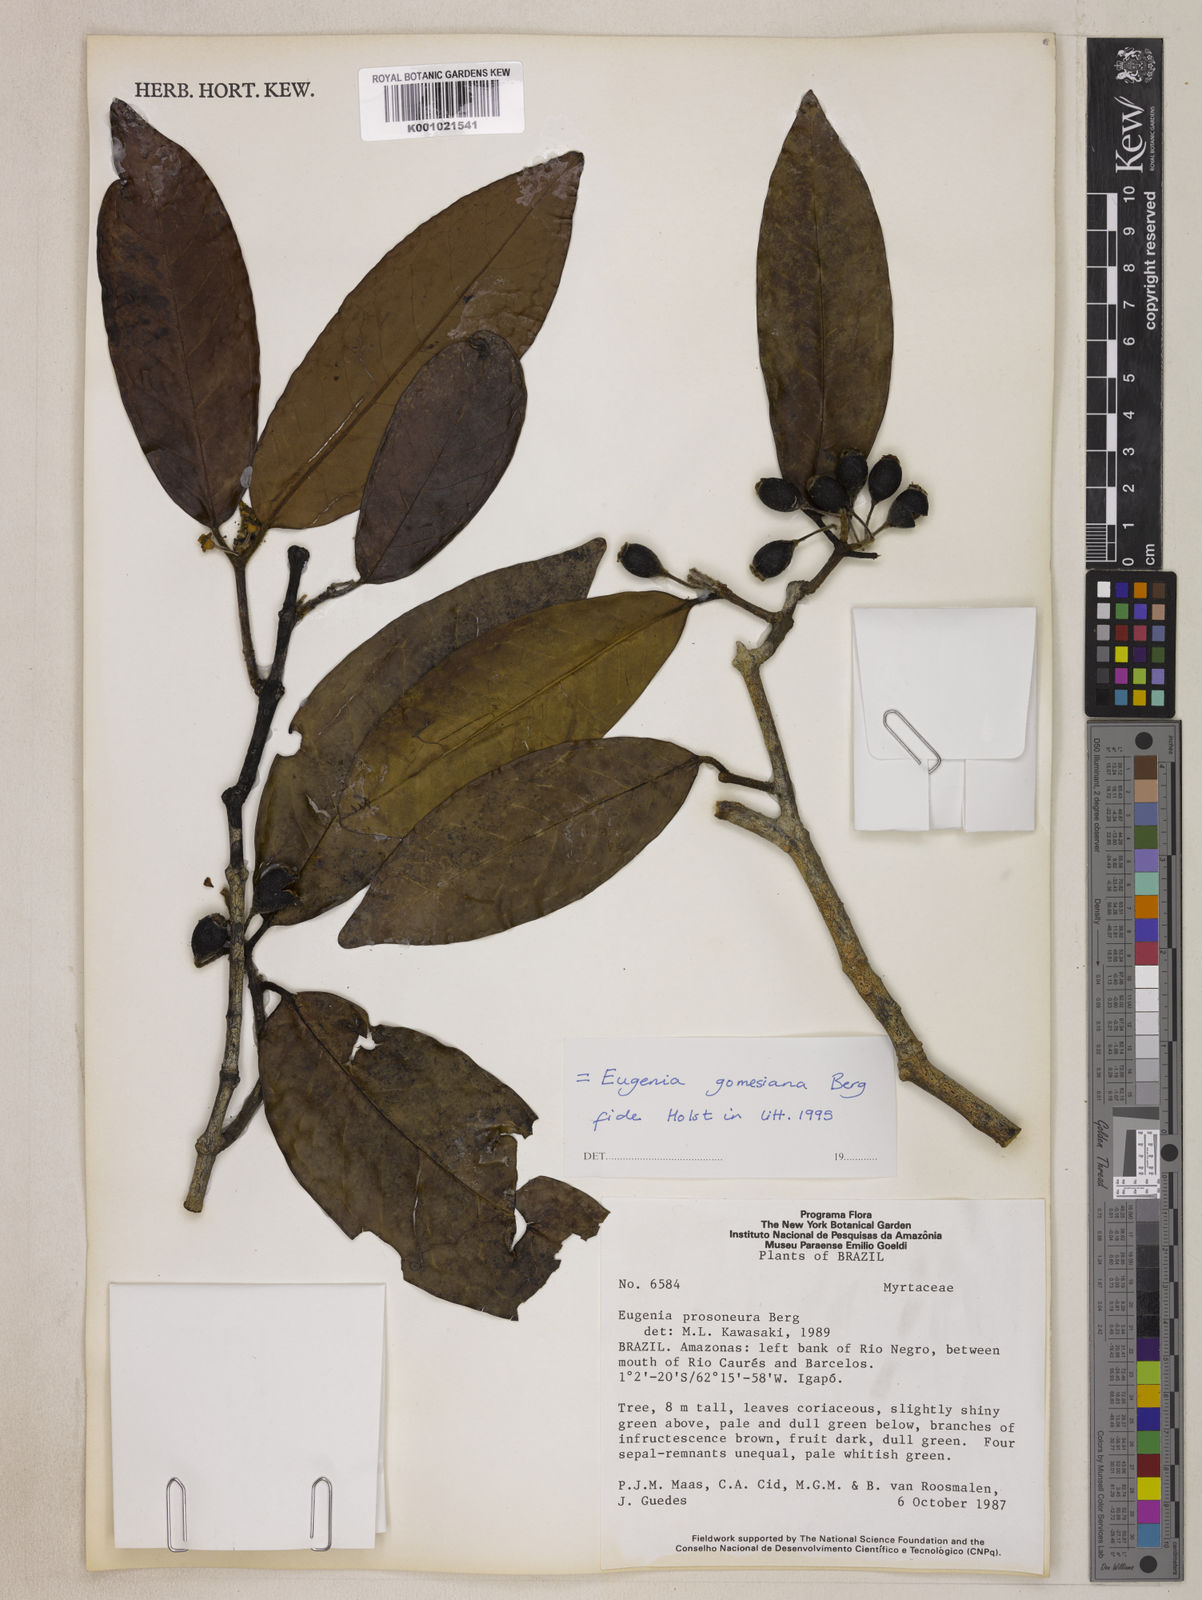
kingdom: Plantae
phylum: Tracheophyta
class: Magnoliopsida
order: Myrtales
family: Myrtaceae
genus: Eugenia
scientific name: Eugenia gomesiana
